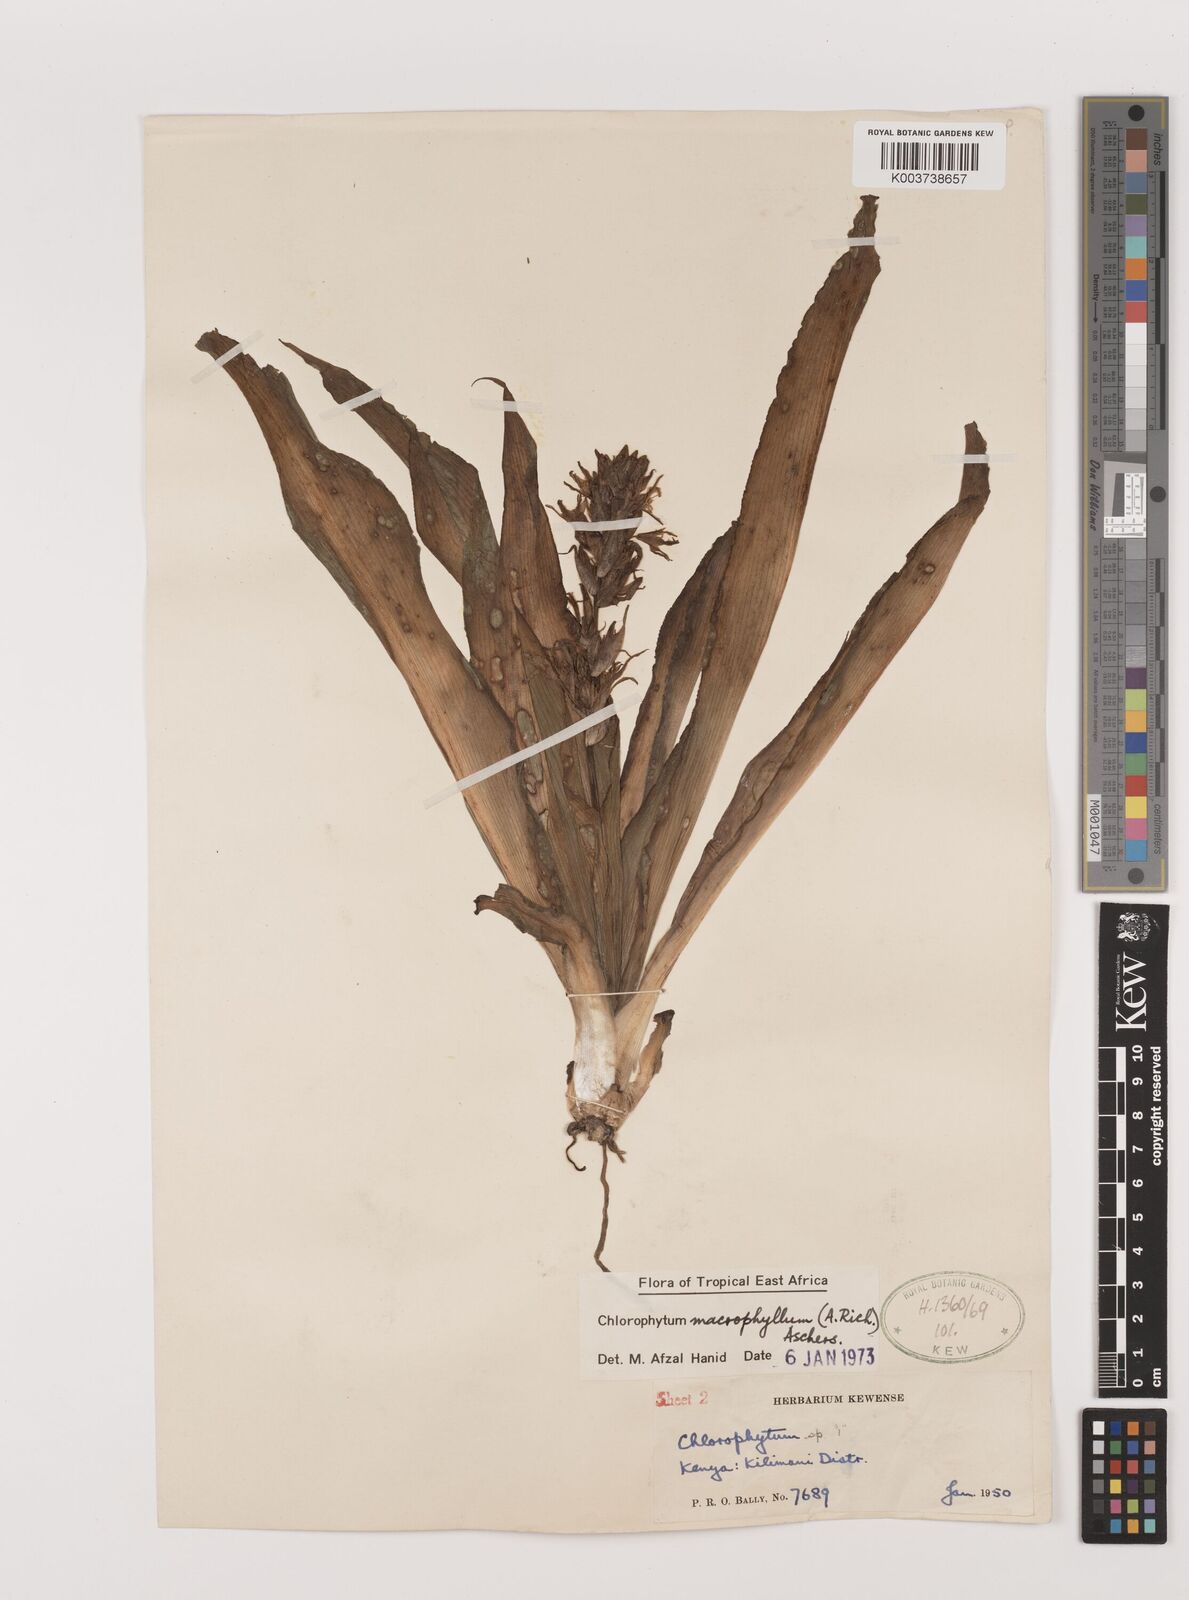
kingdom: Plantae
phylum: Tracheophyta
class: Liliopsida
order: Asparagales
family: Asparagaceae
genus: Chlorophytum
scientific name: Chlorophytum macrophyllum
